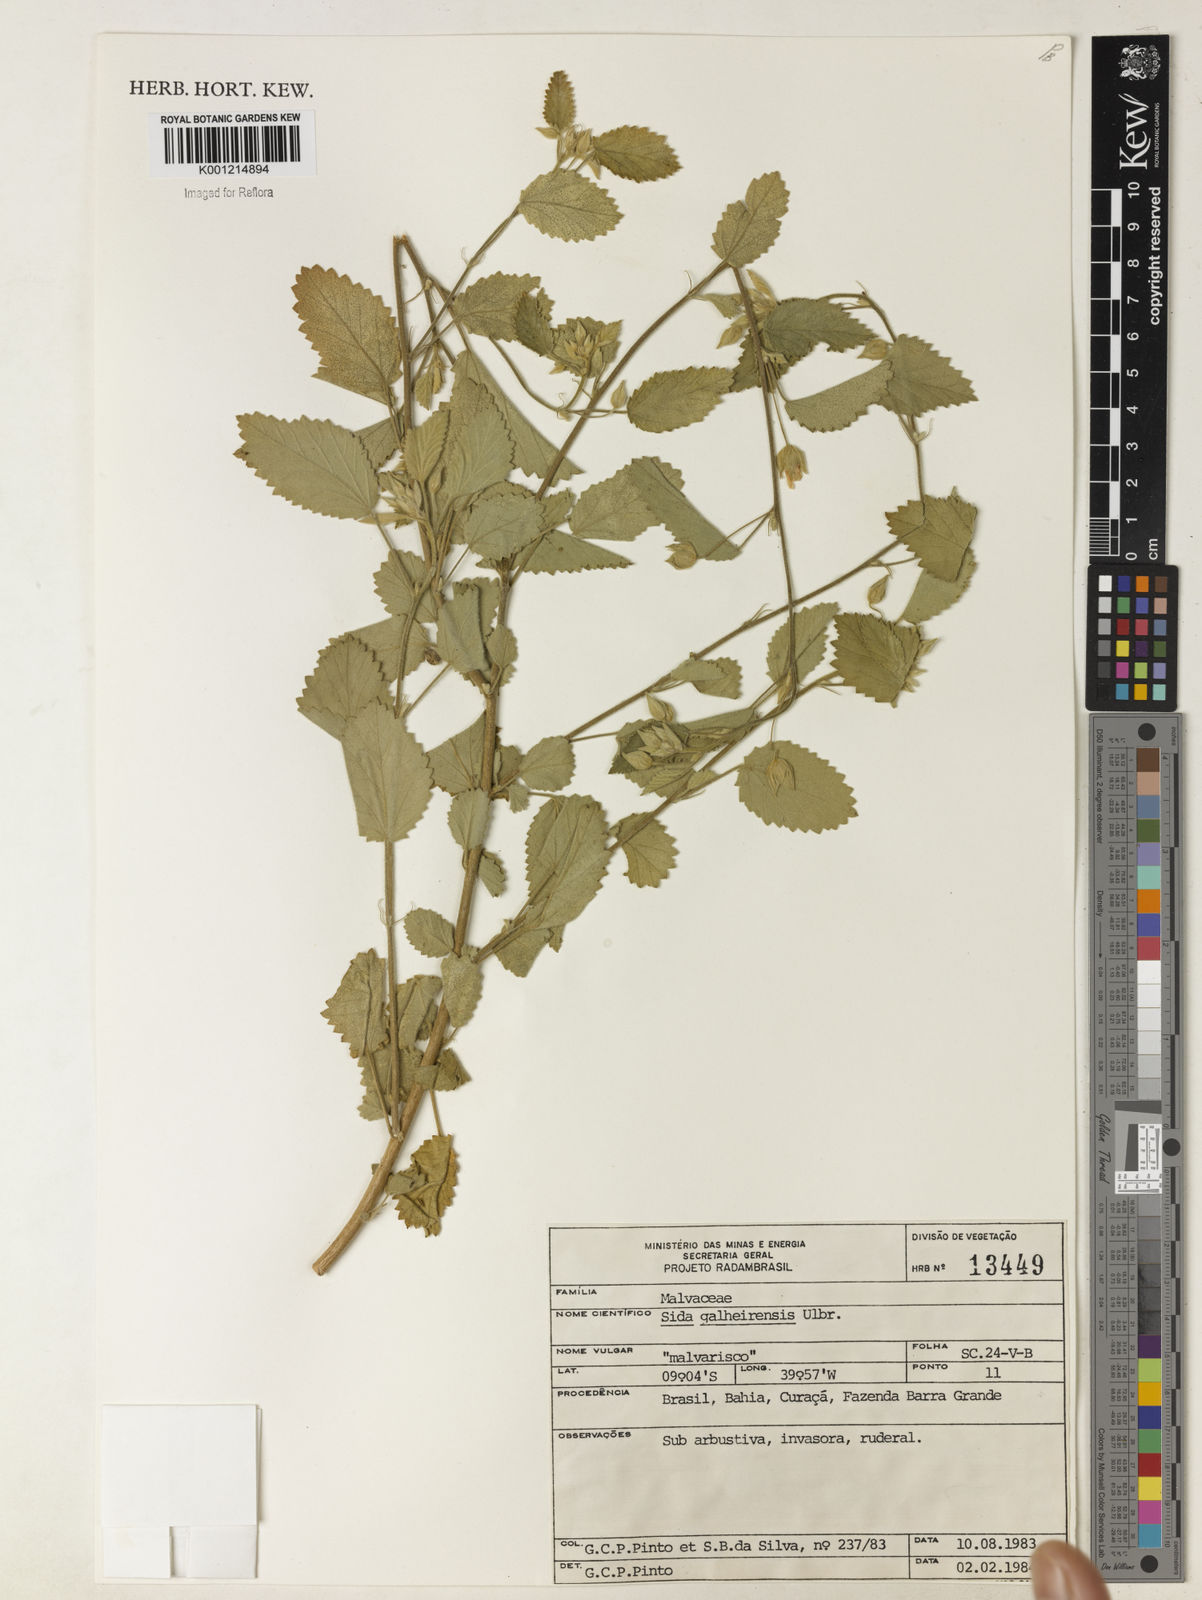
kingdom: Plantae
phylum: Tracheophyta
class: Magnoliopsida
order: Malvales
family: Malvaceae
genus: Sida
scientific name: Sida galheirensis
